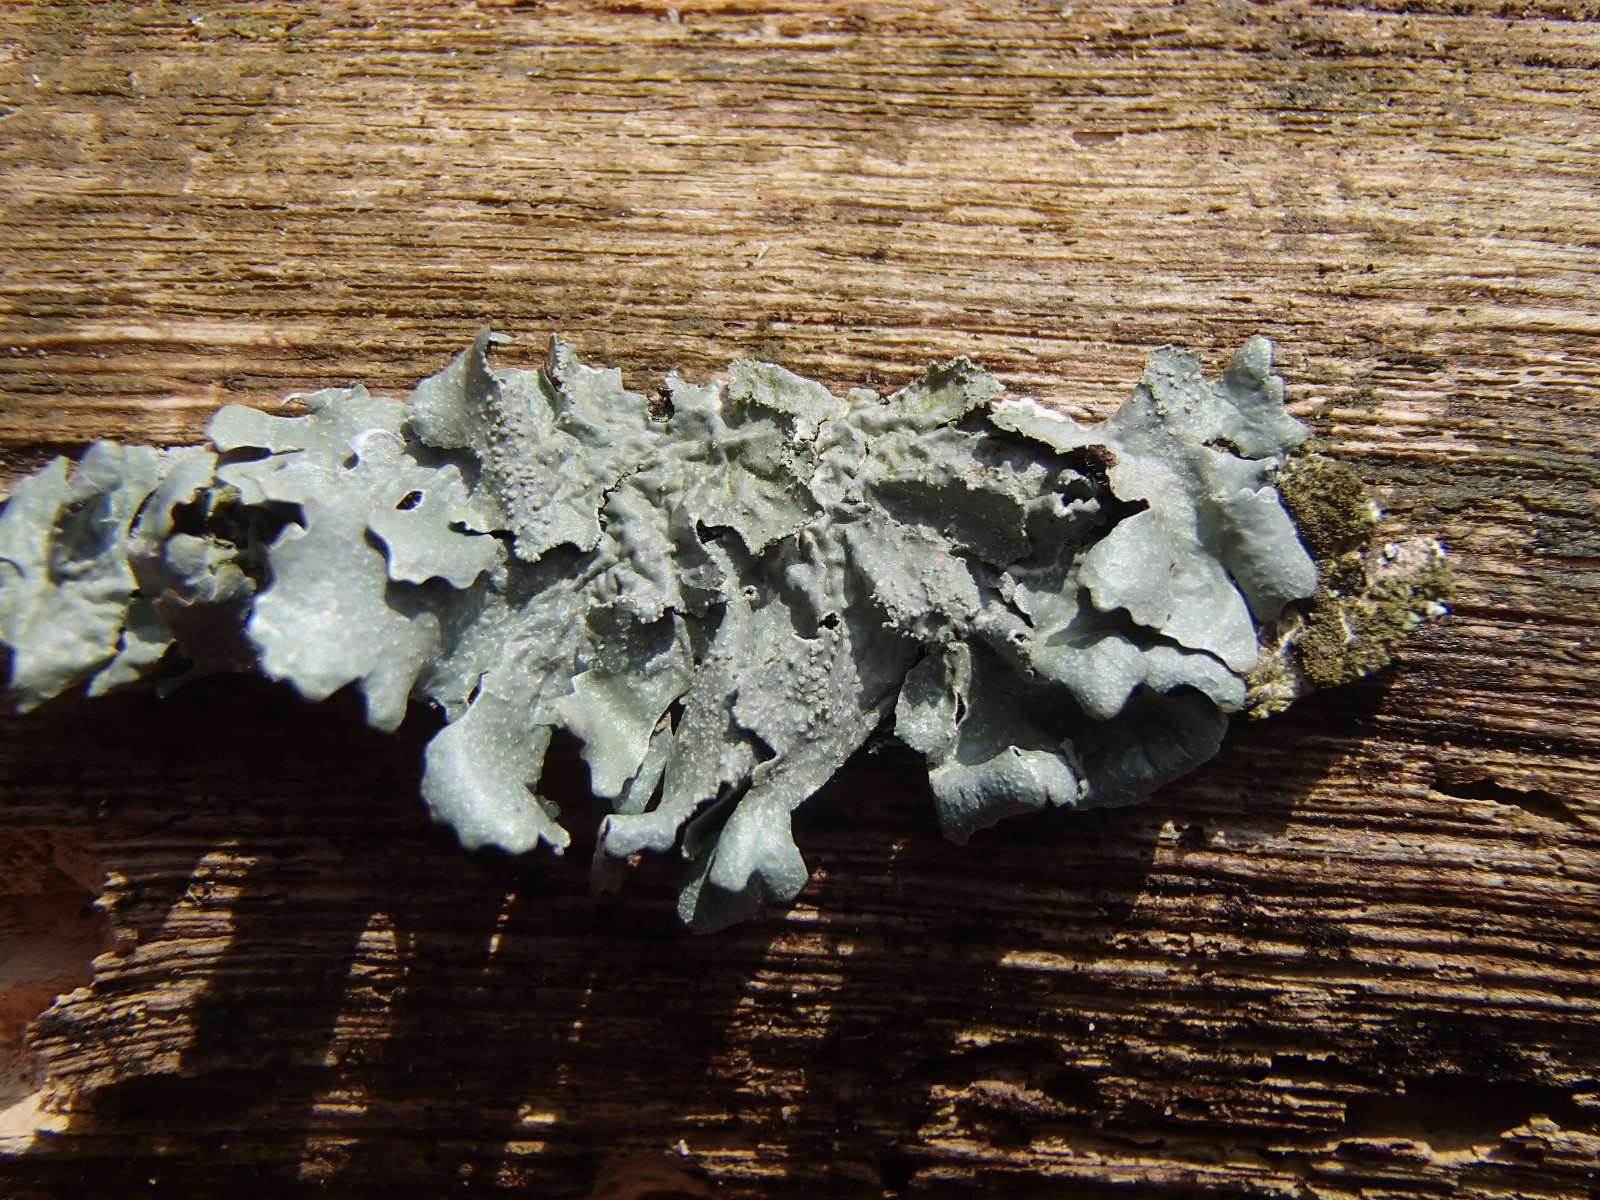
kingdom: Fungi
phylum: Ascomycota
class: Lecanoromycetes
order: Lecanorales
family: Parmeliaceae
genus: Parmelia
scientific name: Parmelia ernstiae
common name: rimstift-skållav
